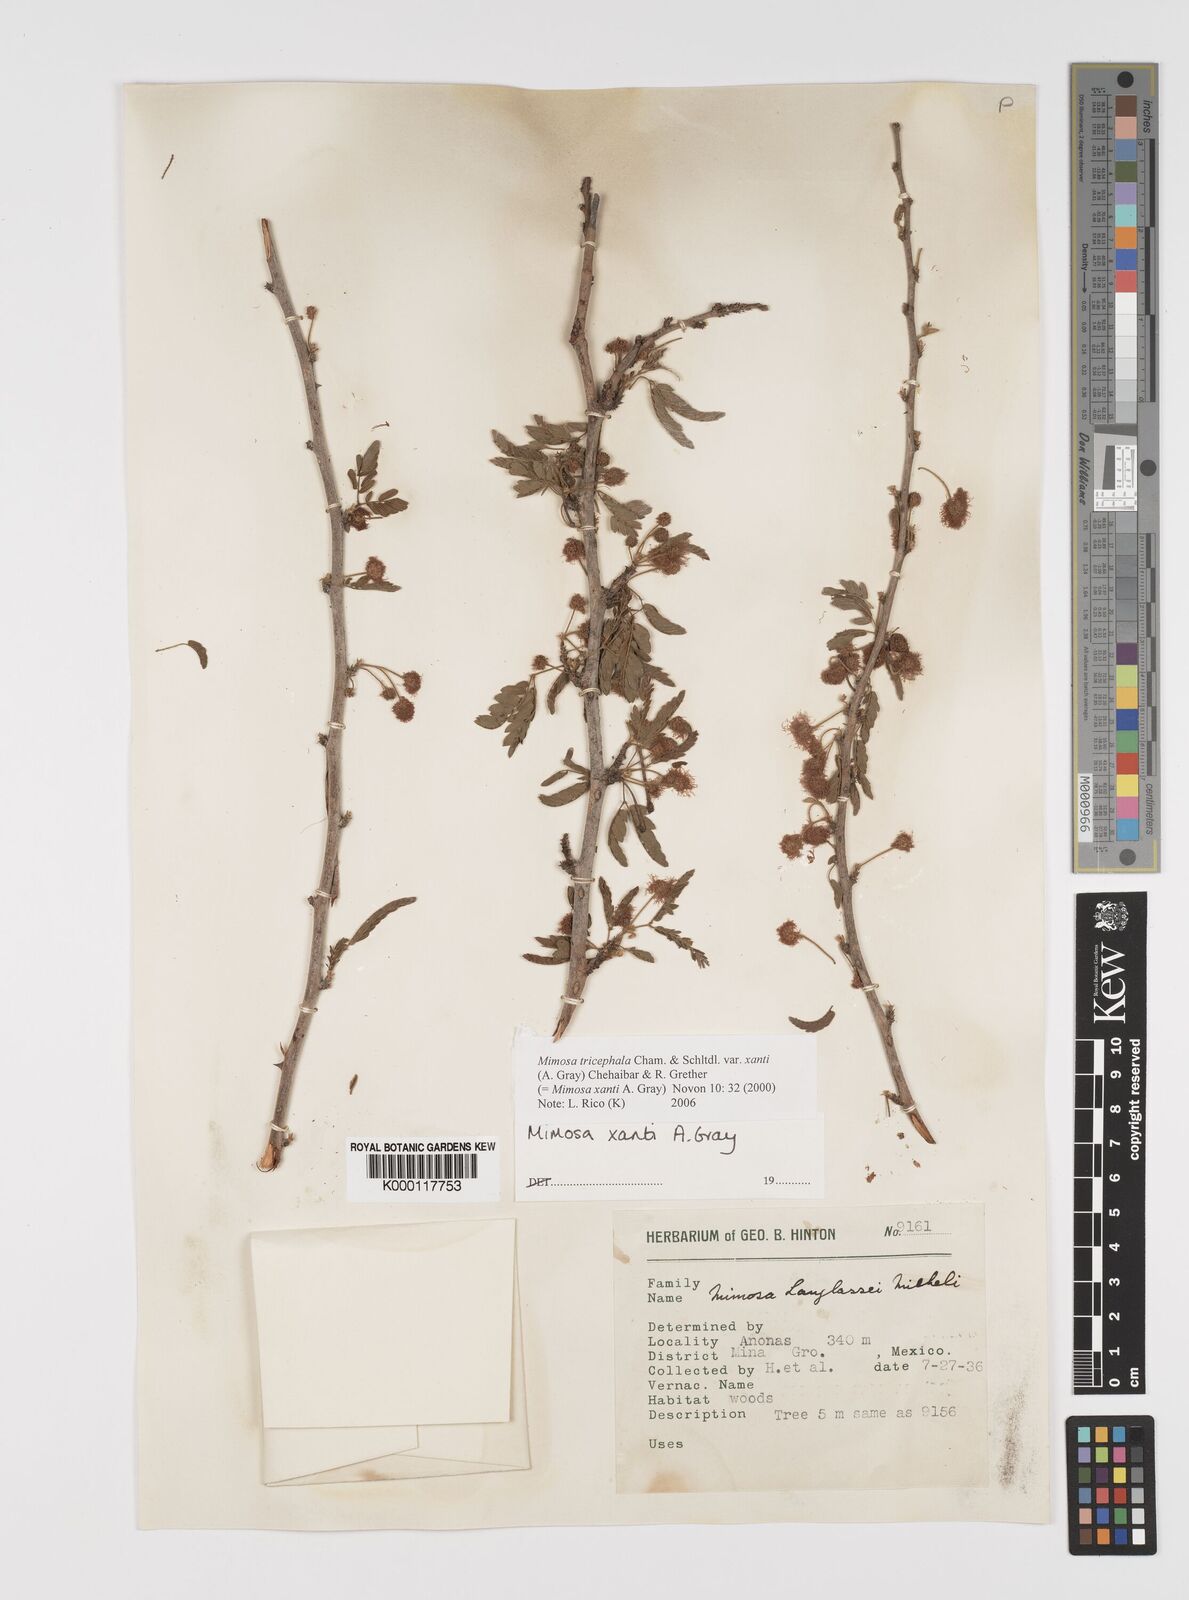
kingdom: Plantae
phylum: Tracheophyta
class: Magnoliopsida
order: Fabales
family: Fabaceae
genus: Mimosa
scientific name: Mimosa tricephala
